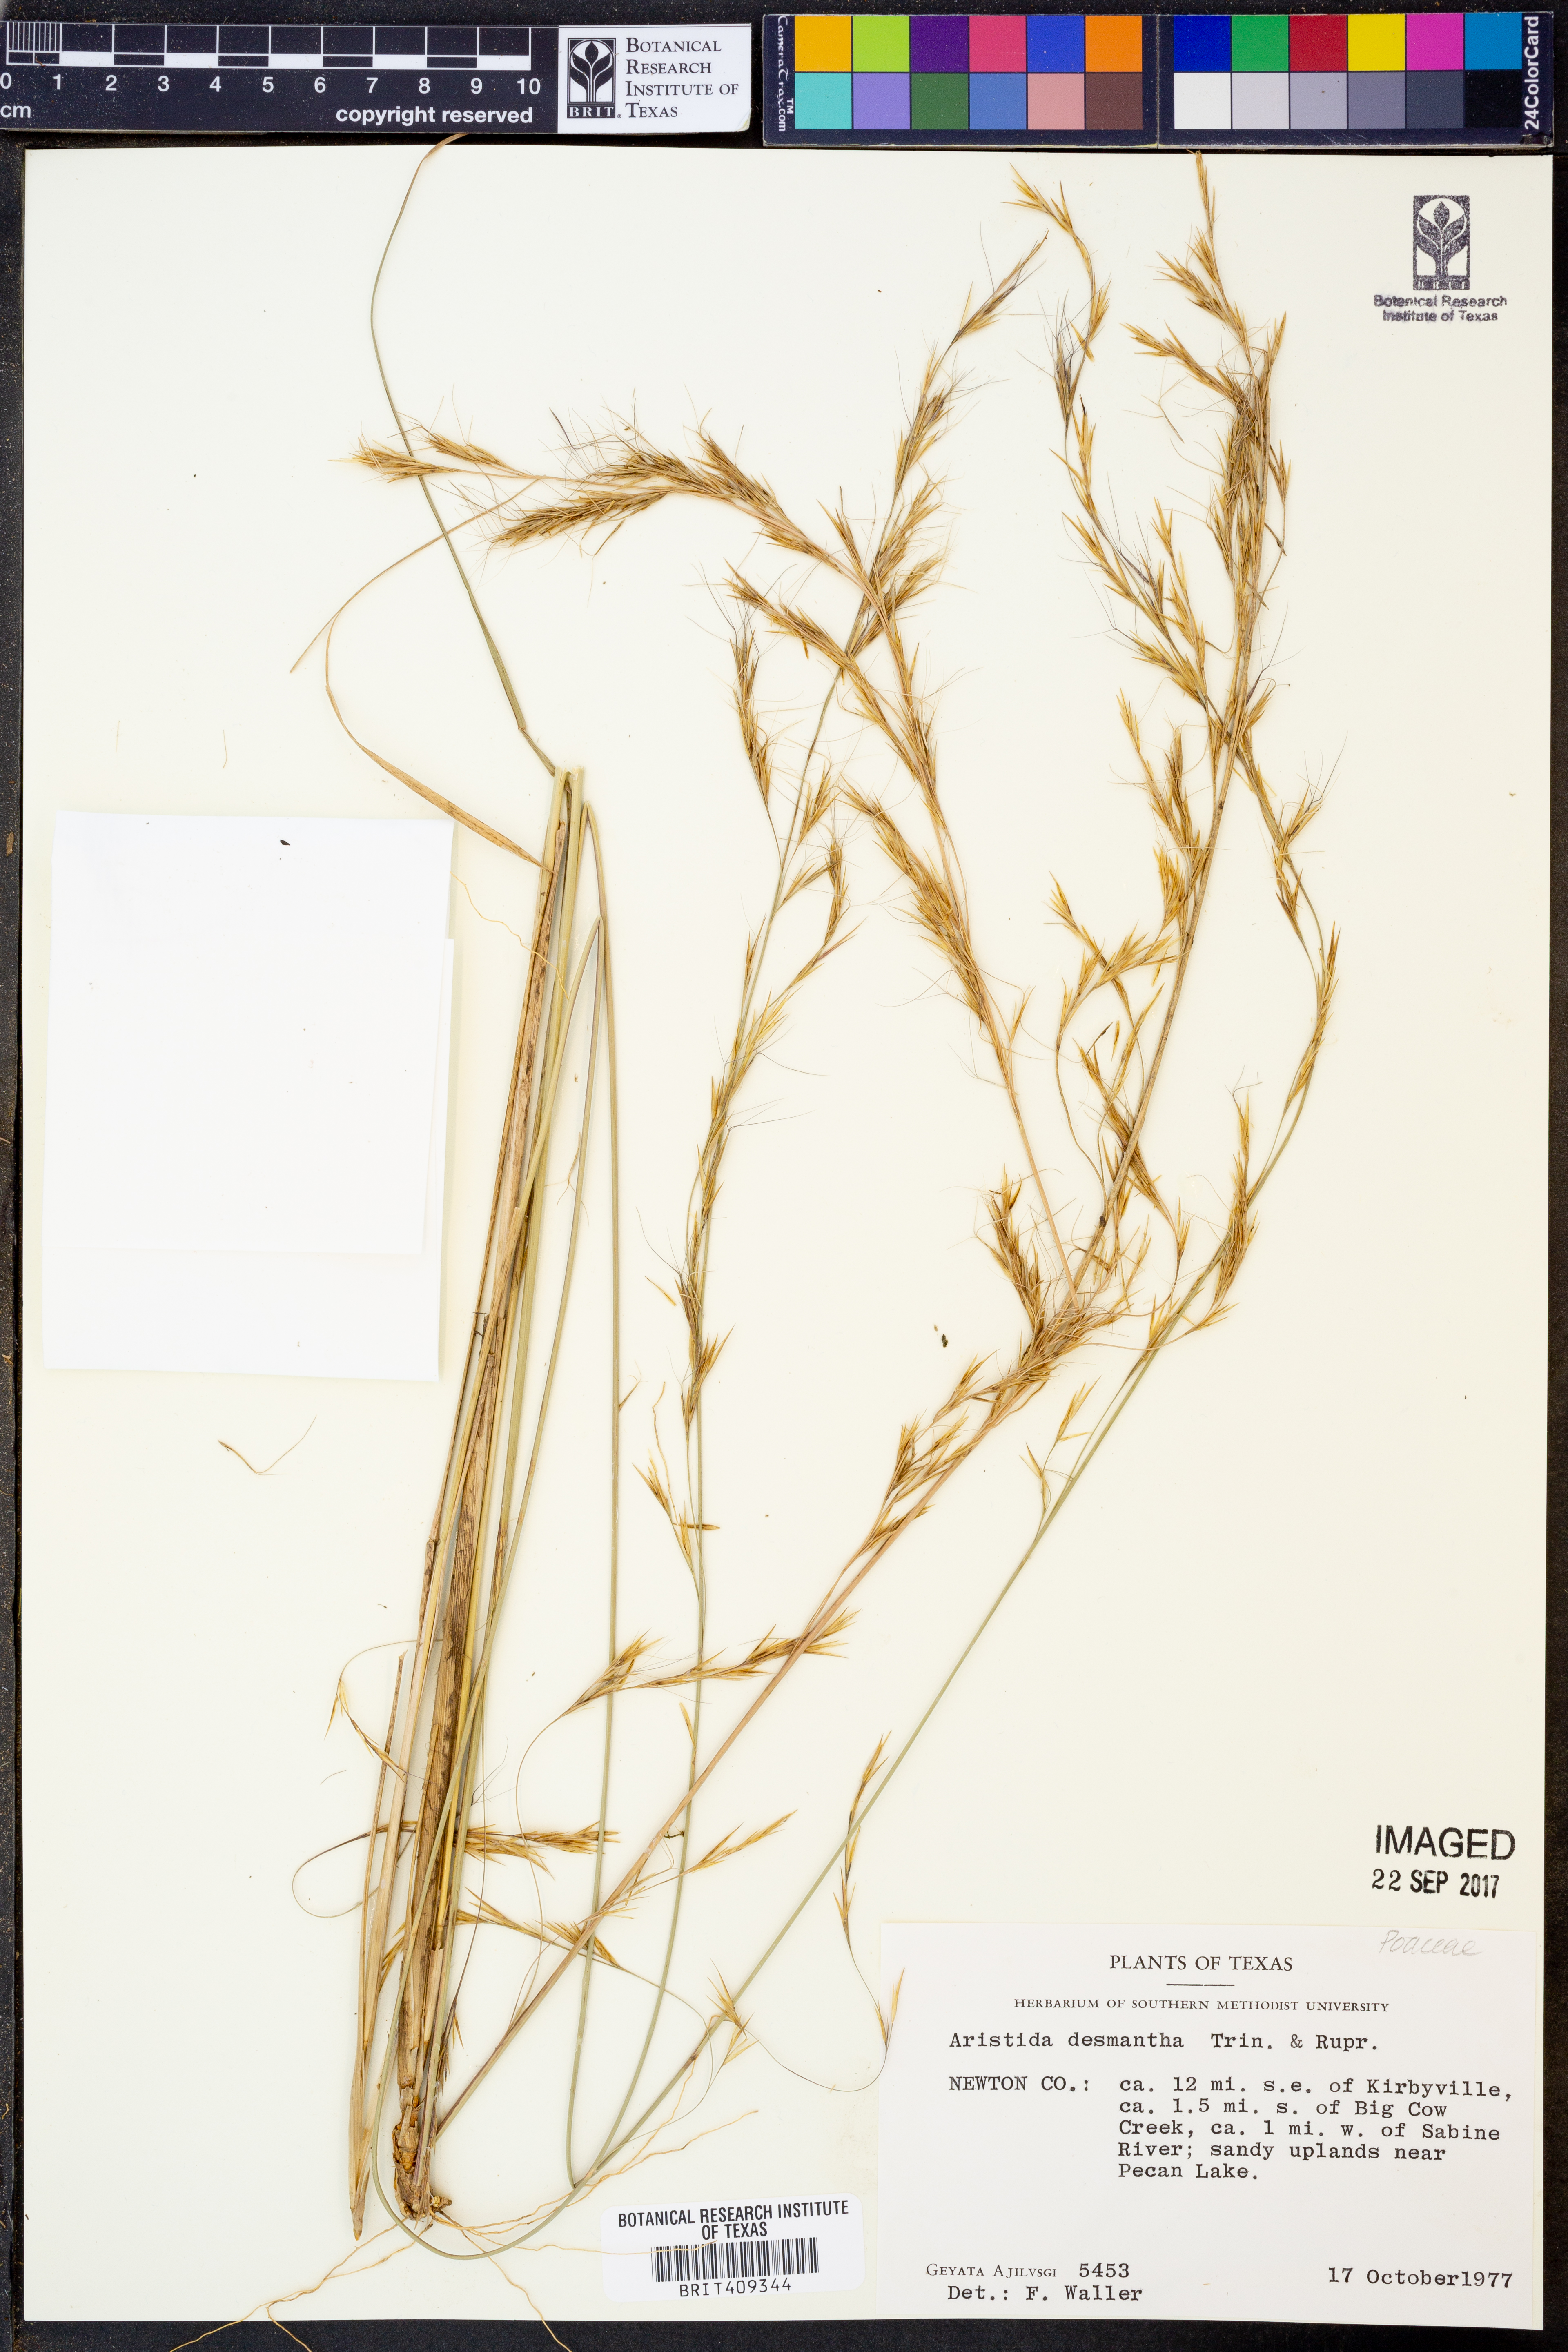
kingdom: Plantae
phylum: Tracheophyta
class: Liliopsida
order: Poales
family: Poaceae
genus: Aristida
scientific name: Aristida desmantha
